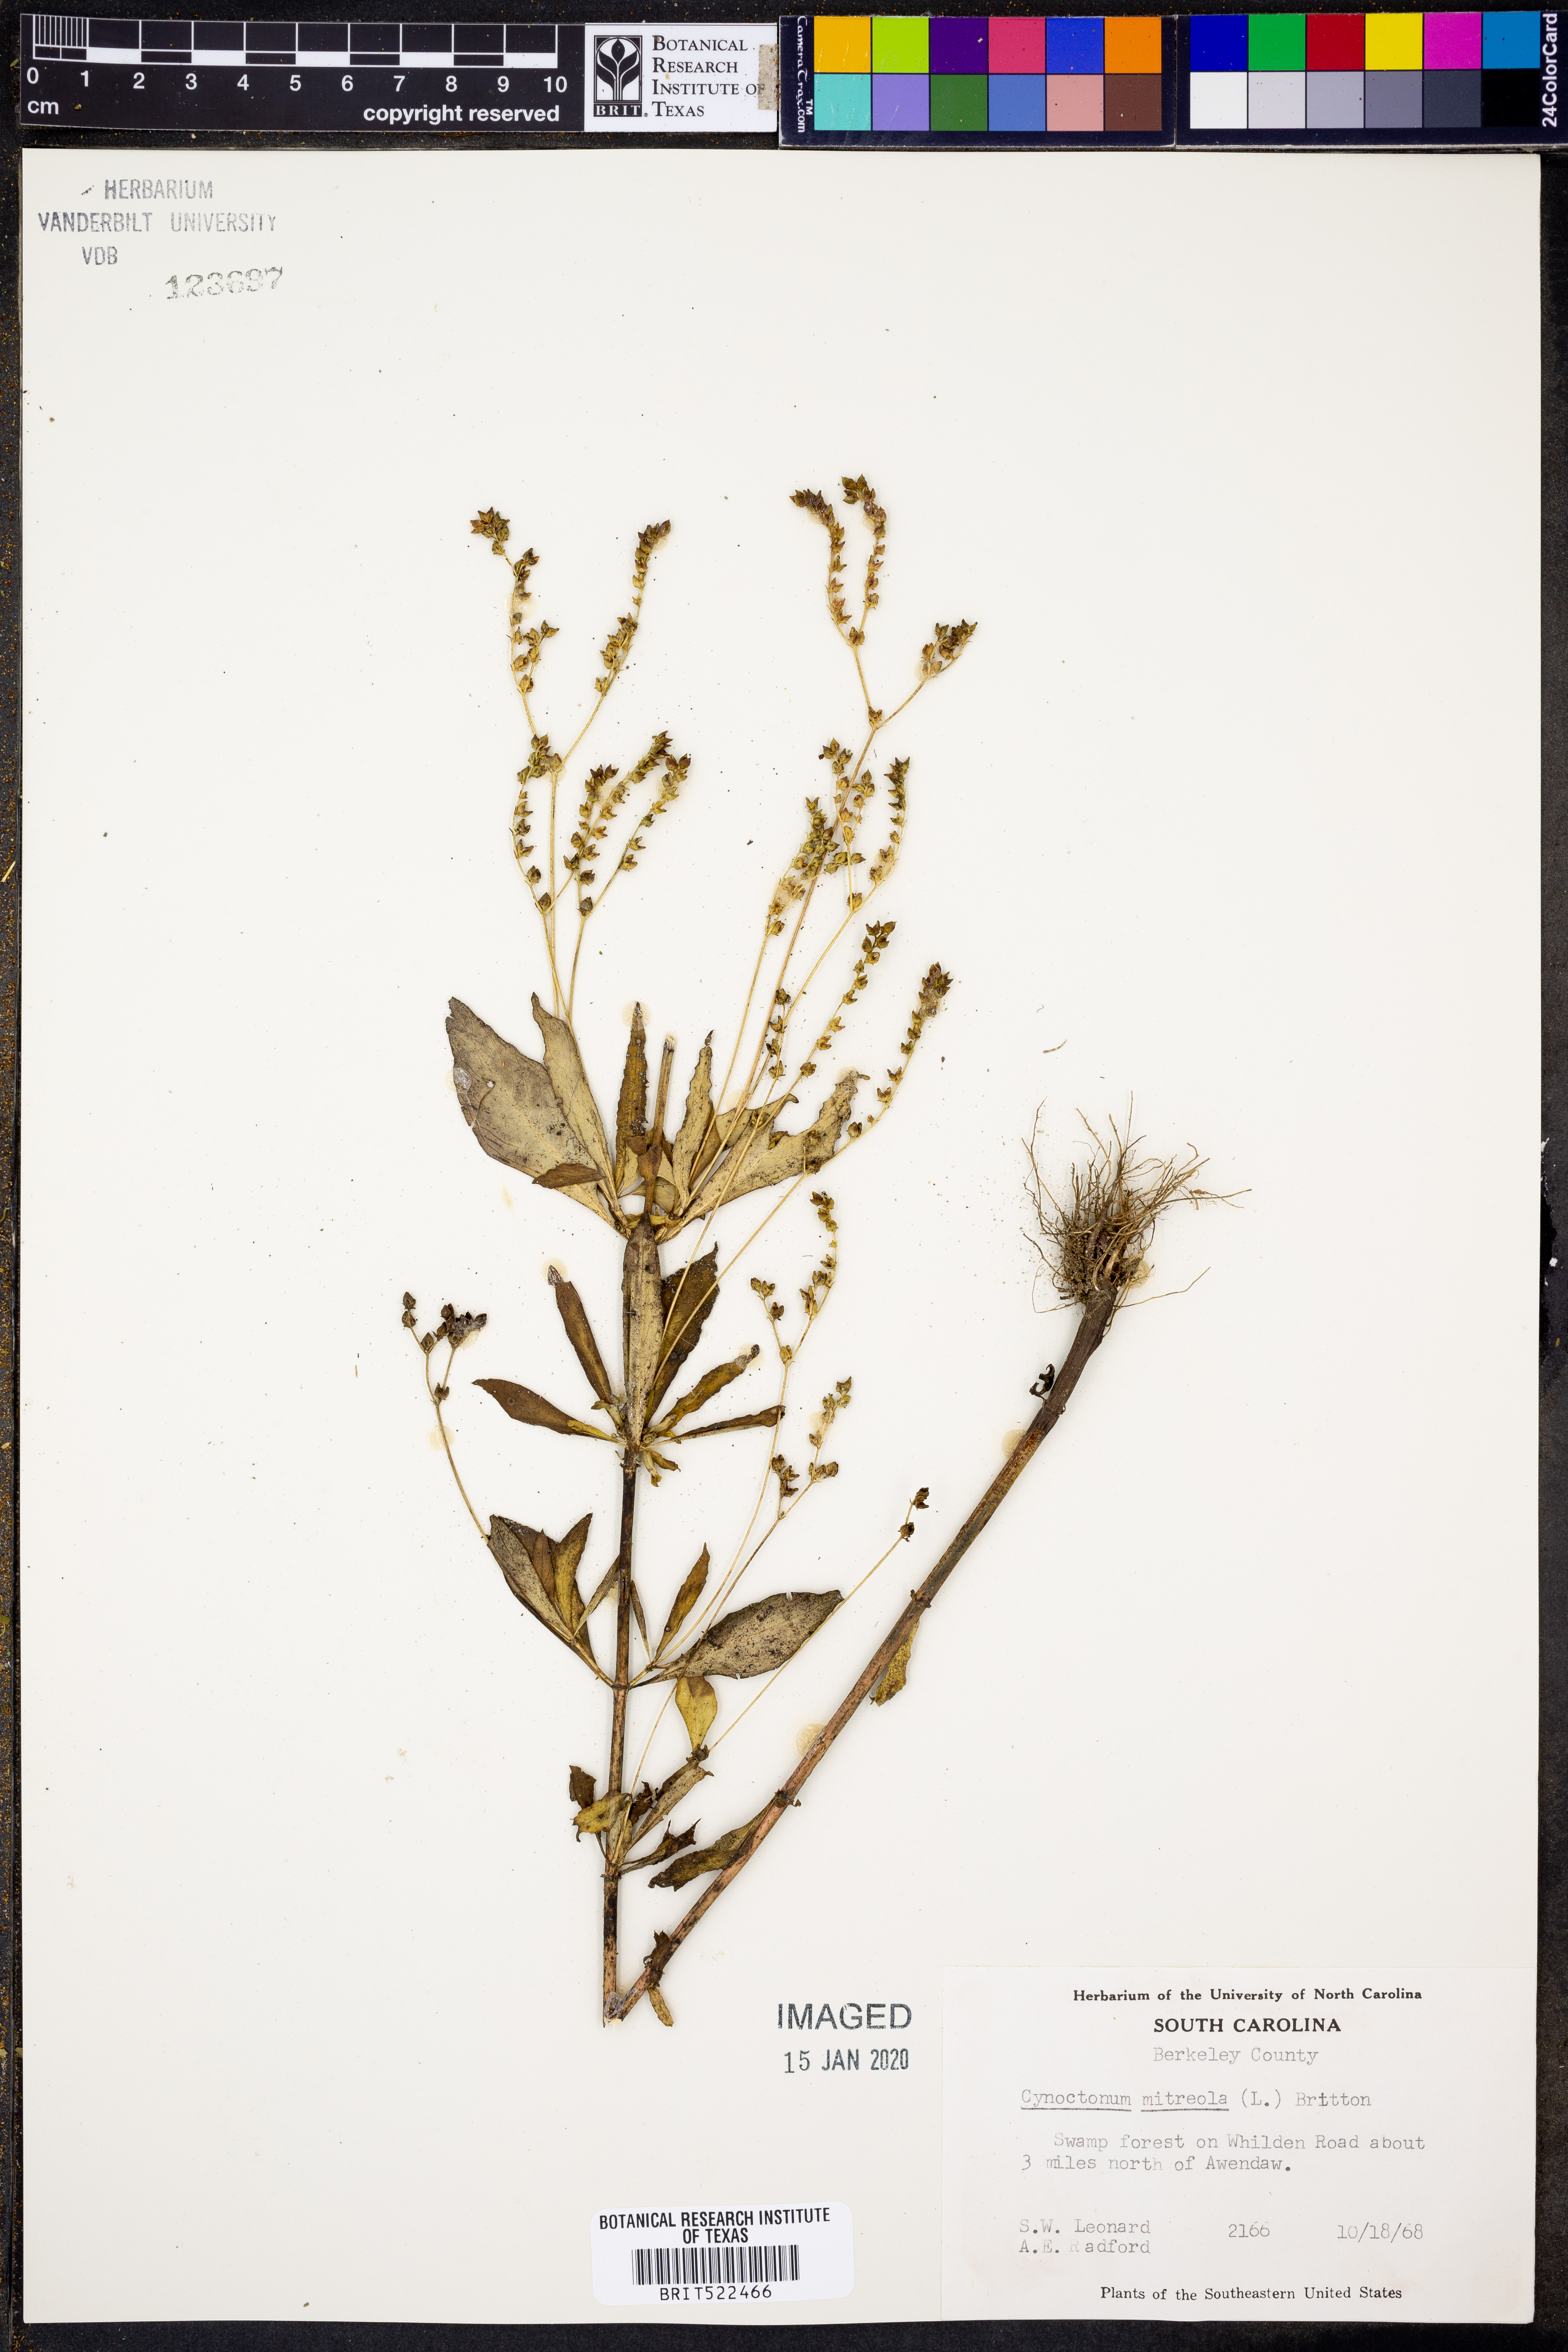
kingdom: Plantae
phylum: Tracheophyta
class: Magnoliopsida
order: Gentianales
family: Loganiaceae
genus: Mitreola
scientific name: Mitreola petiolata
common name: Lax hornpod
